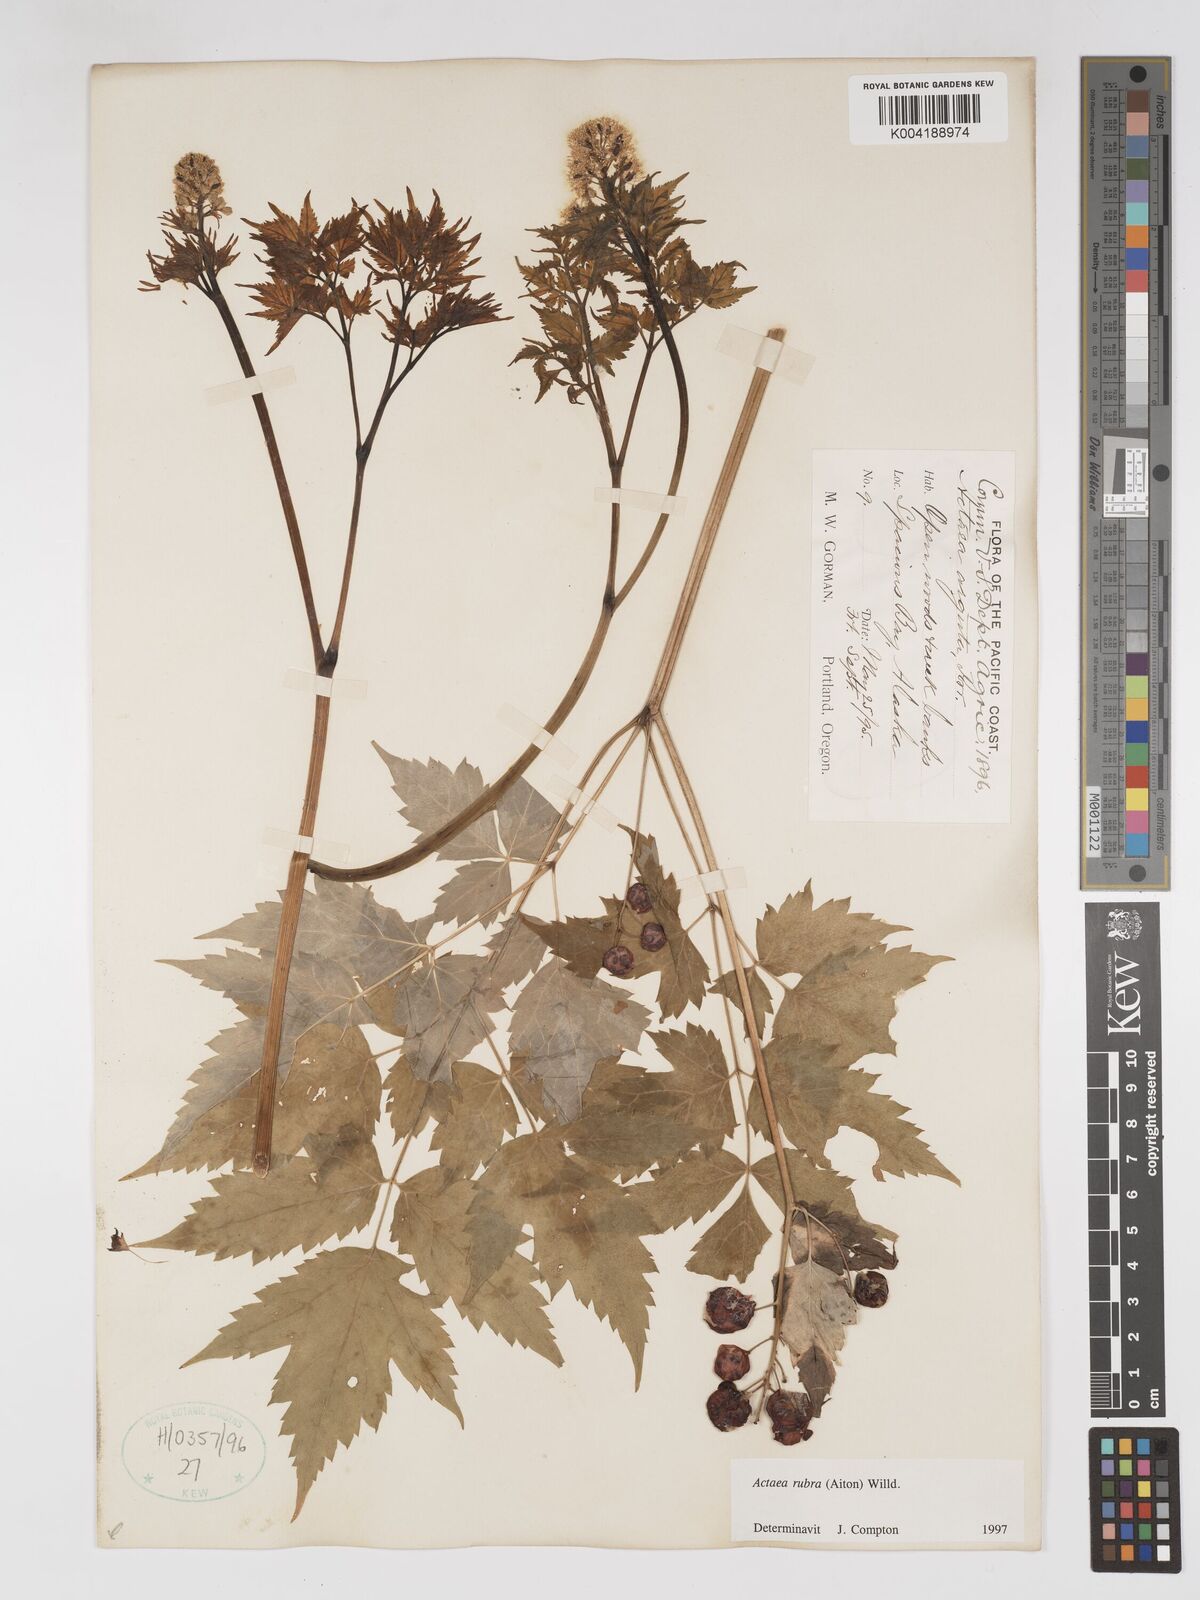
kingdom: Plantae
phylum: Tracheophyta
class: Magnoliopsida
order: Ranunculales
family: Ranunculaceae
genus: Actaea
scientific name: Actaea rubra
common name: Red baneberry
